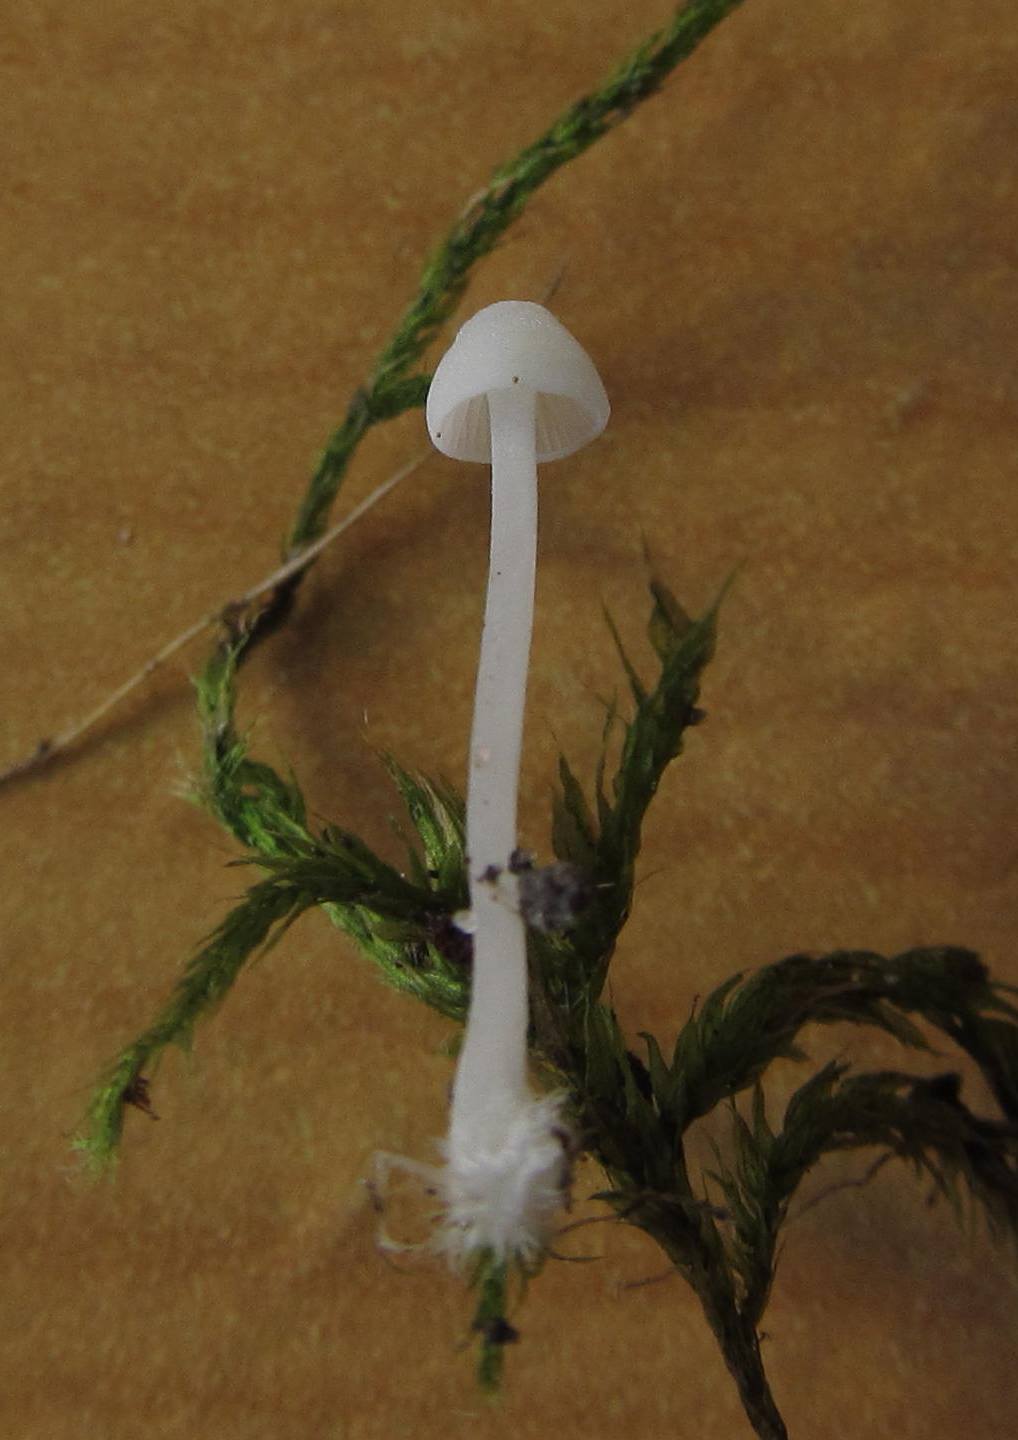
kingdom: Fungi
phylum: Basidiomycota
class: Agaricomycetes
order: Agaricales
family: Mycenaceae
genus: Hemimycena
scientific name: Hemimycena lactea
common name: mælkehvid huesvamp
